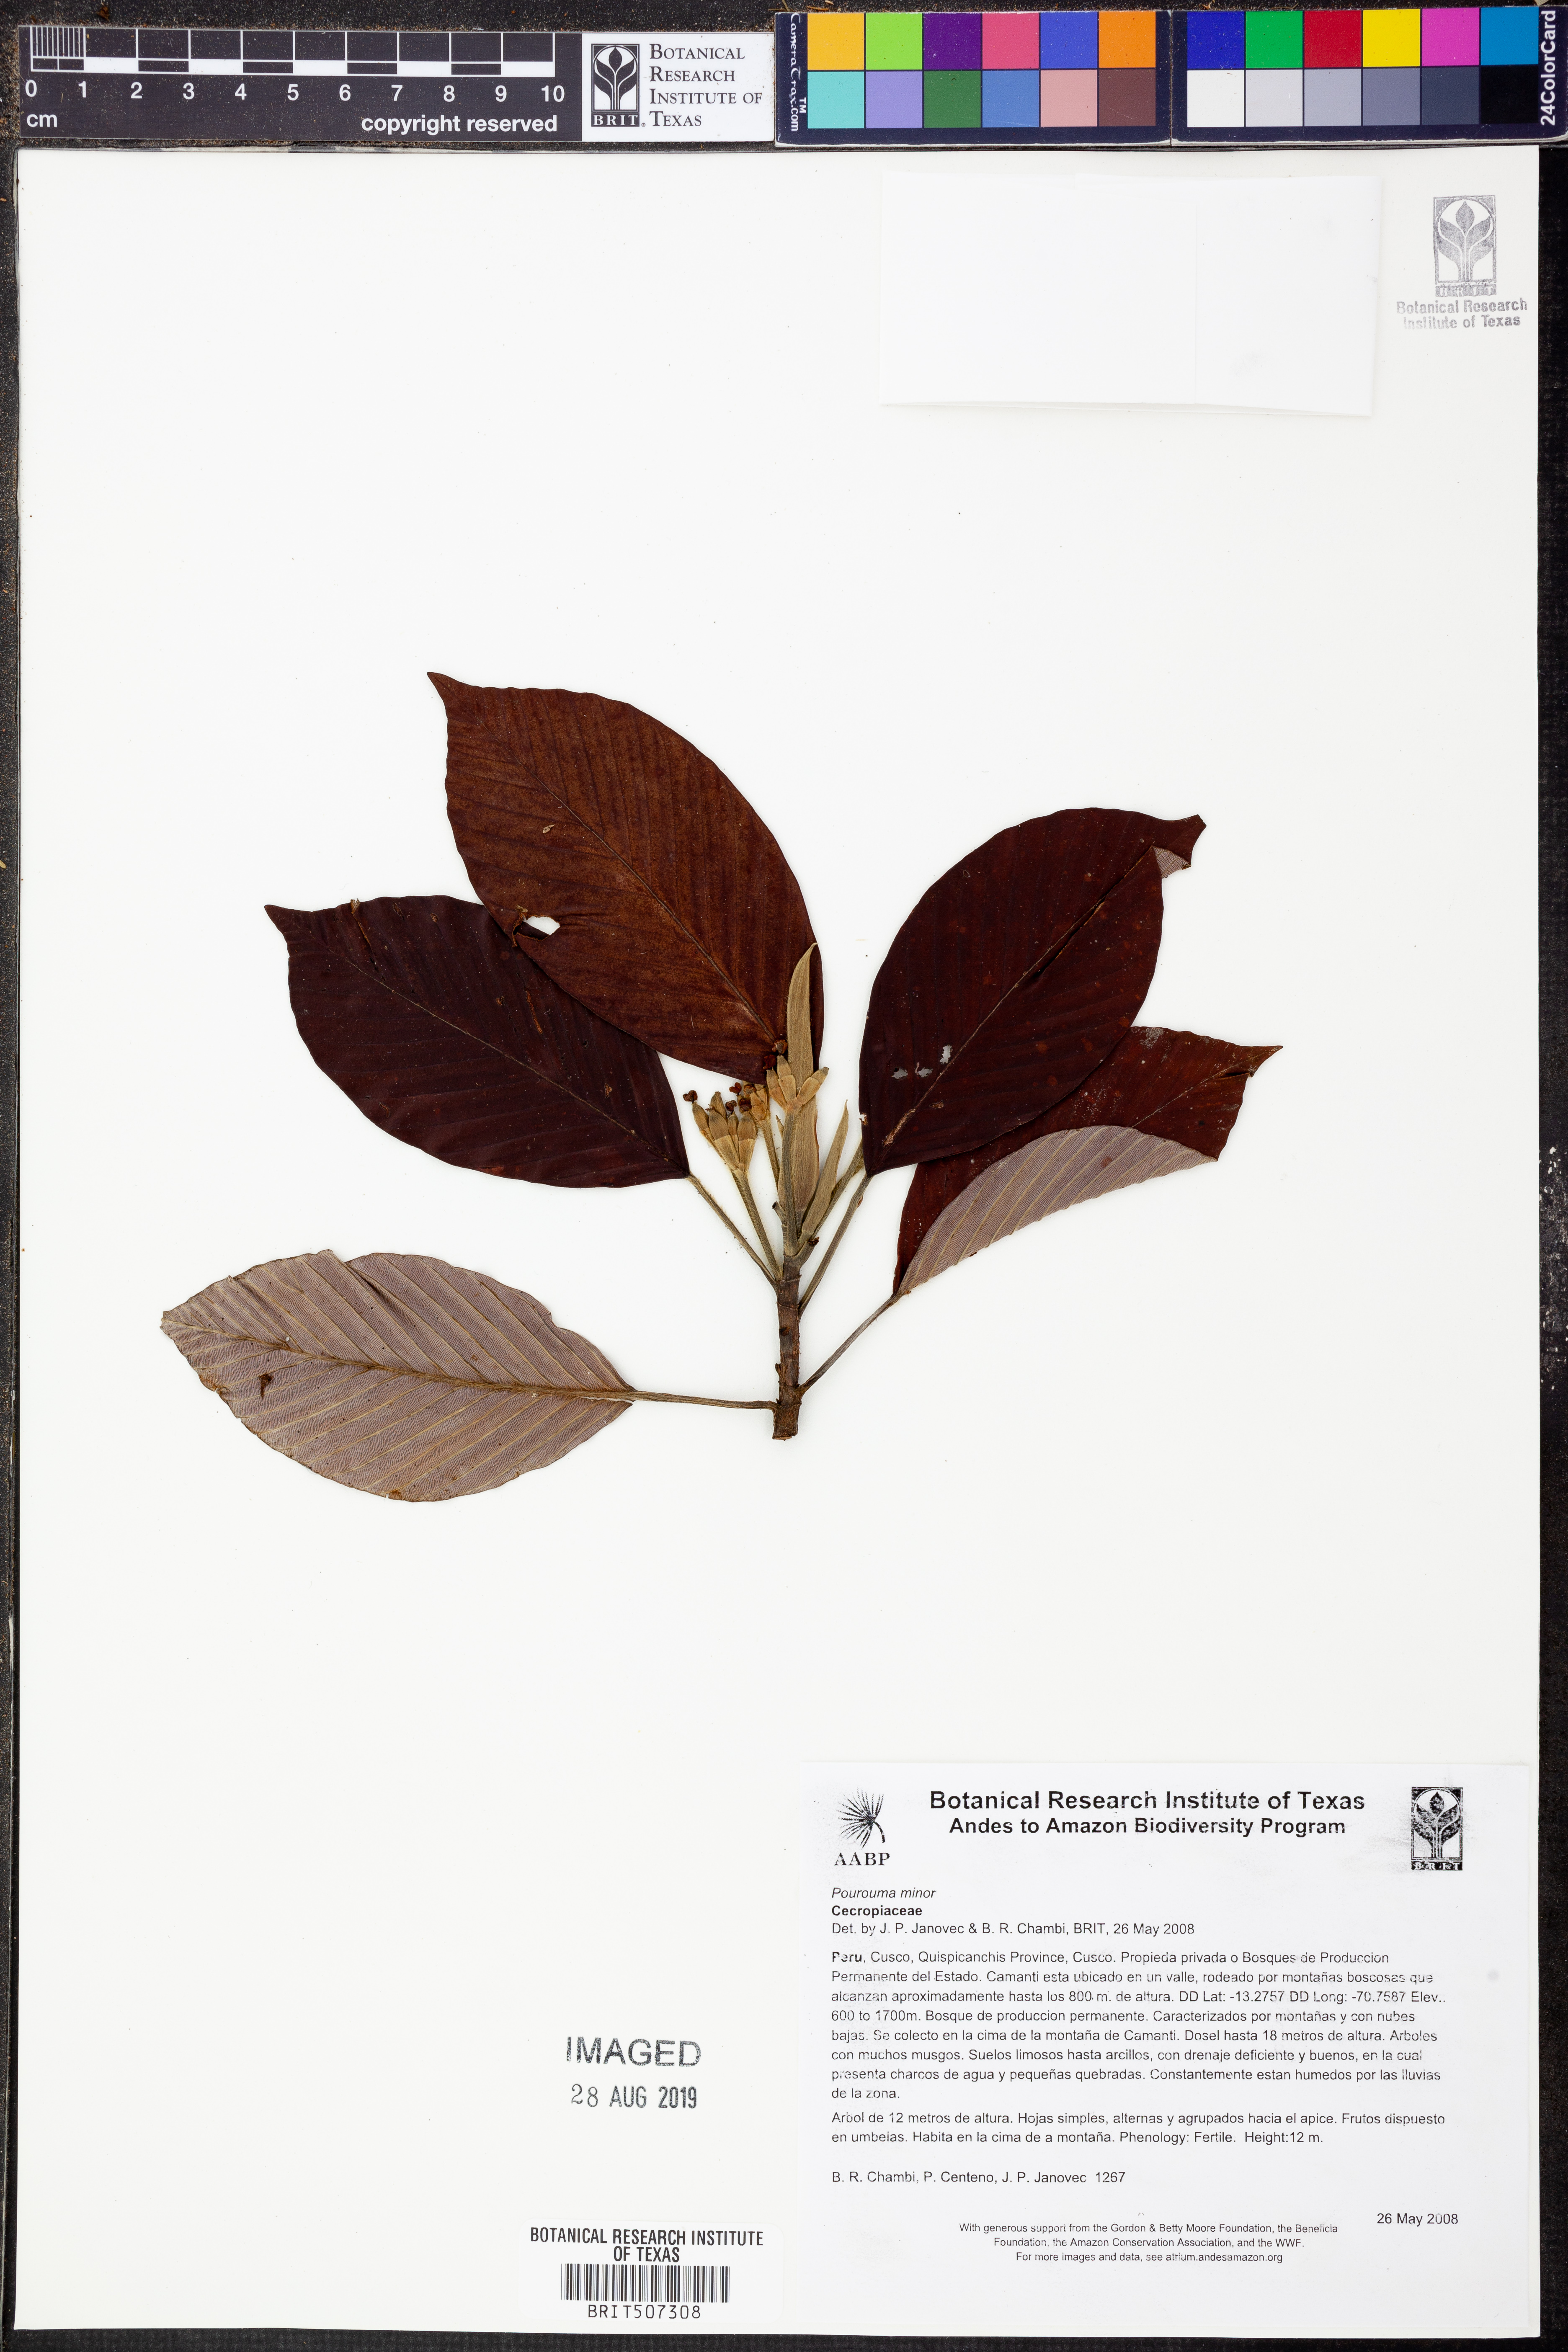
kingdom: Plantae
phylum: Tracheophyta
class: Magnoliopsida
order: Rosales
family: Urticaceae
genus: Pourouma
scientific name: Pourouma
